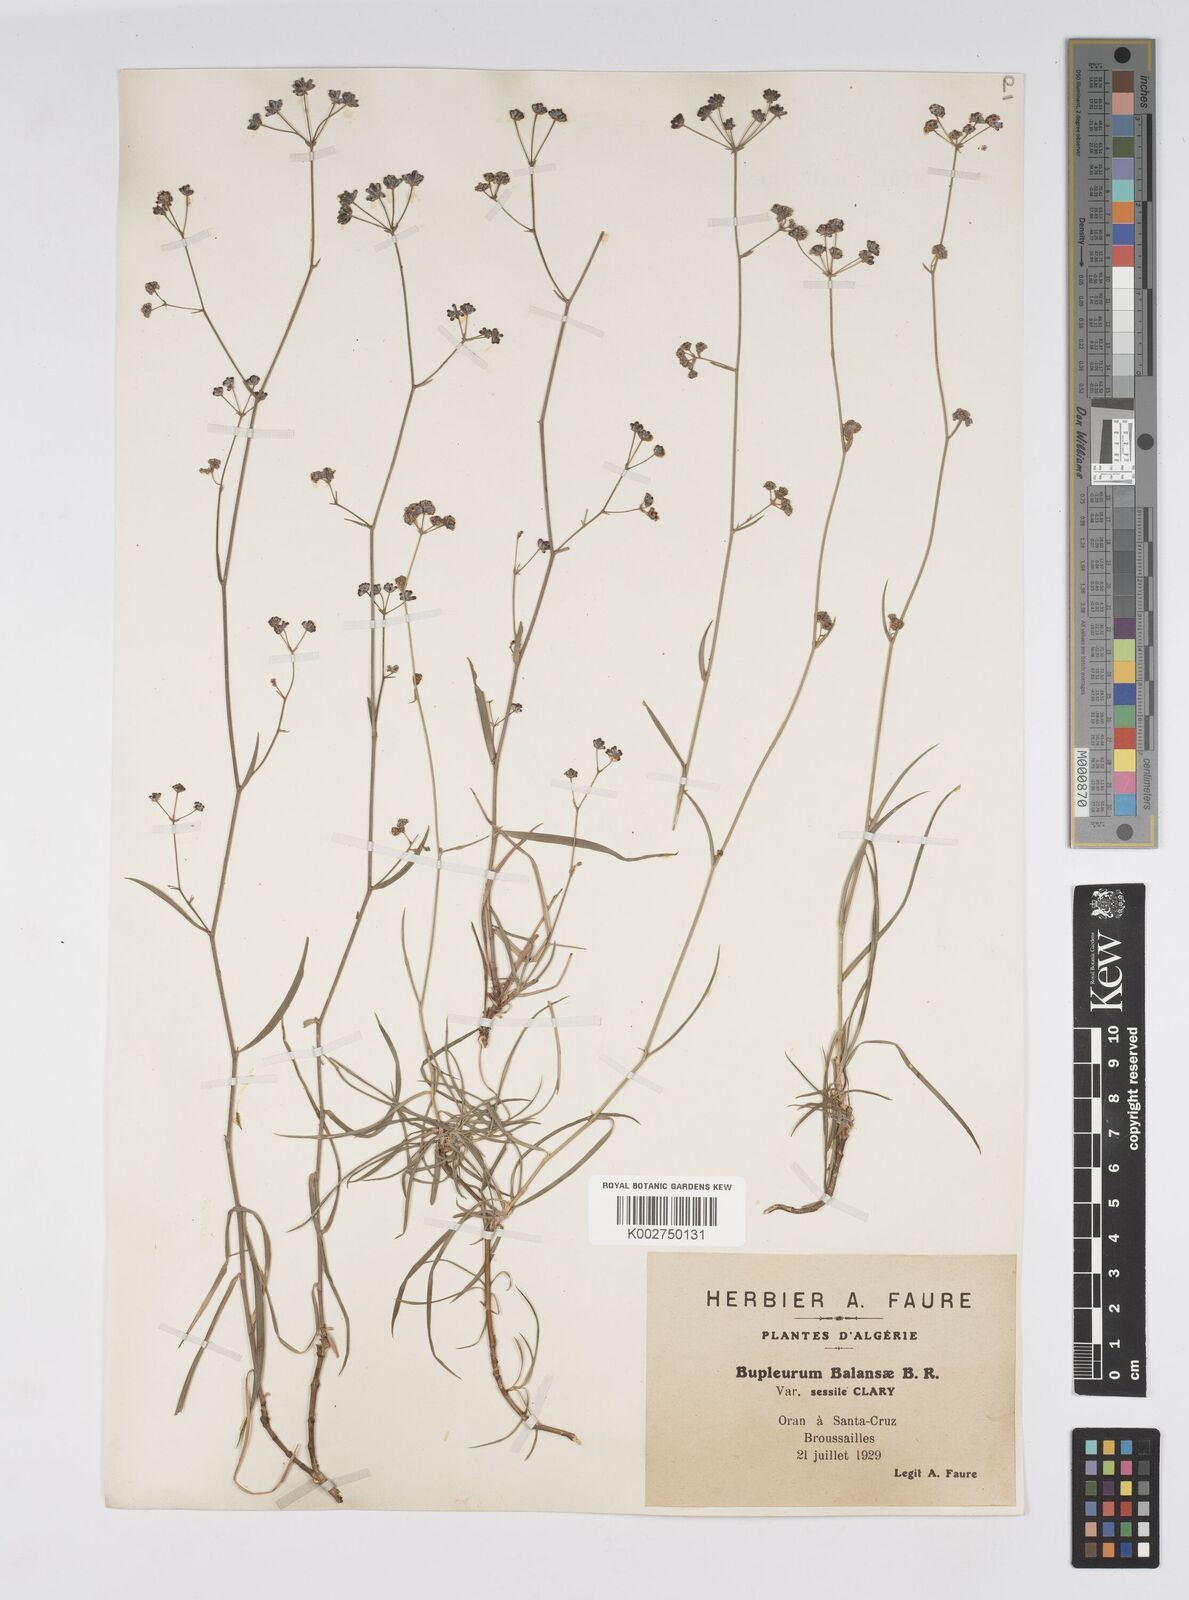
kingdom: Plantae
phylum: Tracheophyta
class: Magnoliopsida
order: Apiales
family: Apiaceae
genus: Bupleurum
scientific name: Bupleurum balansae
